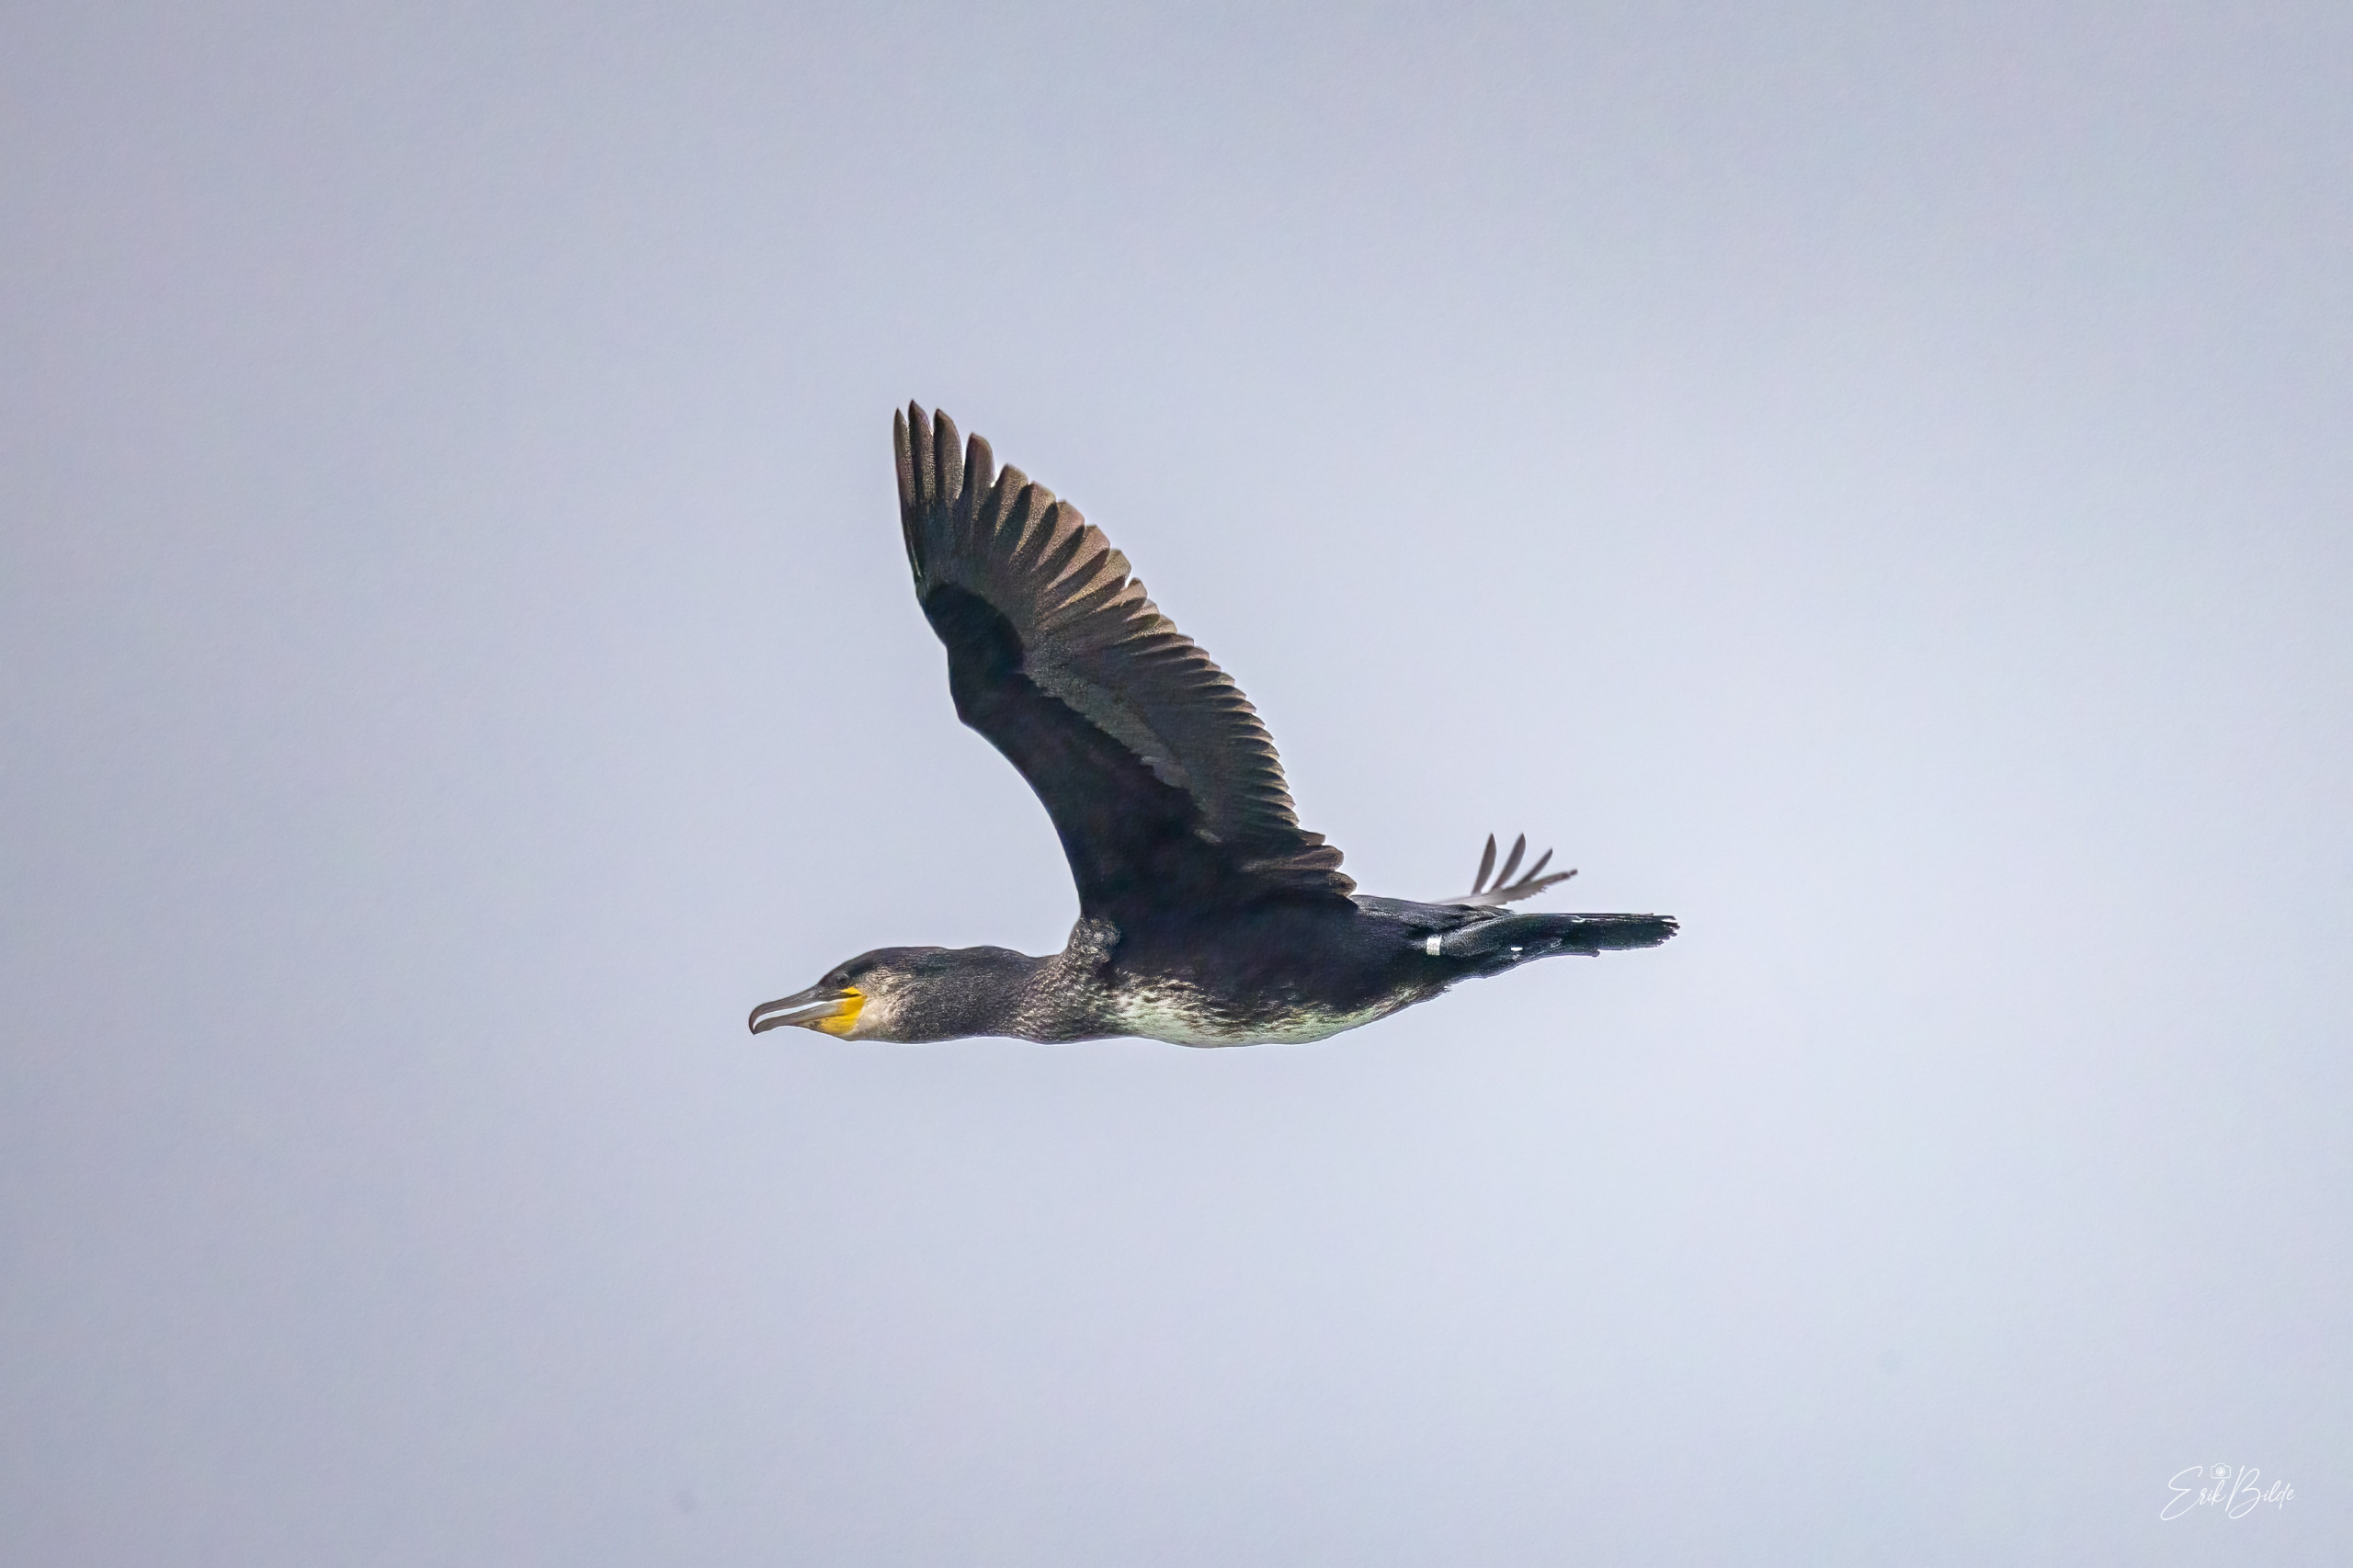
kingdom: Animalia
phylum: Chordata
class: Aves
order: Suliformes
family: Phalacrocoracidae
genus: Phalacrocorax
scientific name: Phalacrocorax carbo
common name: Skarv
